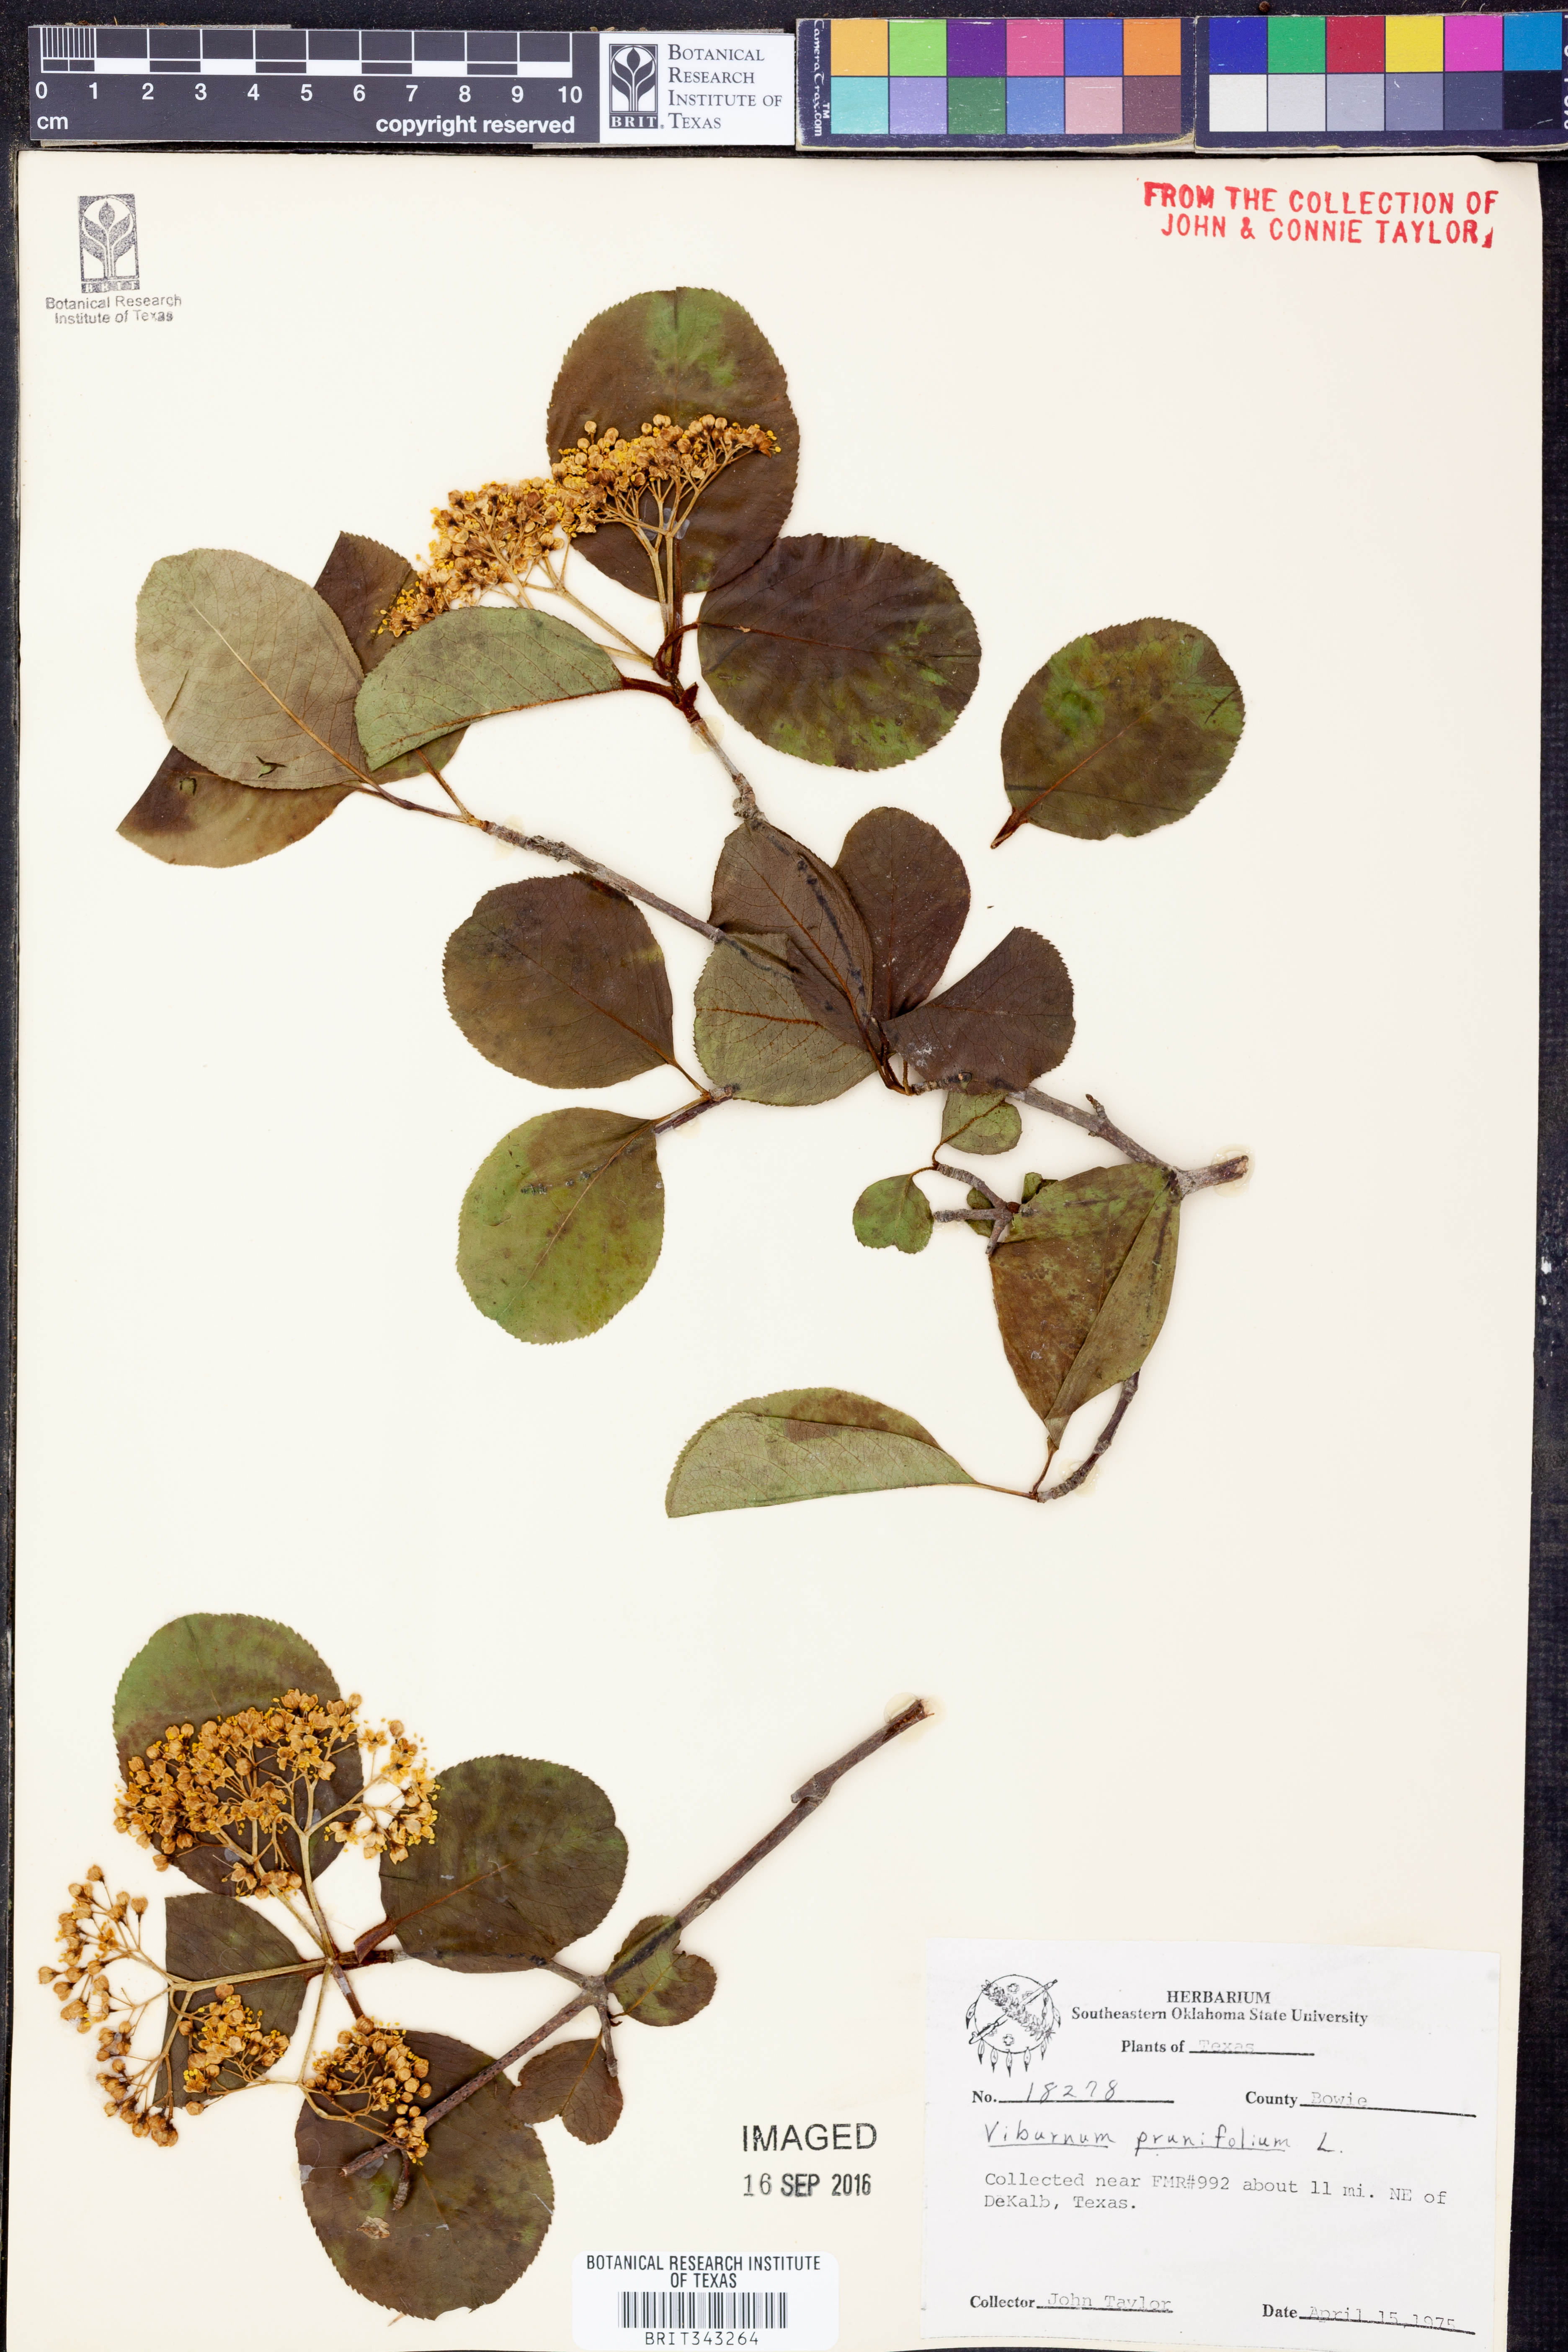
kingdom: Plantae
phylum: Tracheophyta
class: Magnoliopsida
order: Dipsacales
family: Viburnaceae
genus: Viburnum
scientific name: Viburnum prunifolium
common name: Black haw
